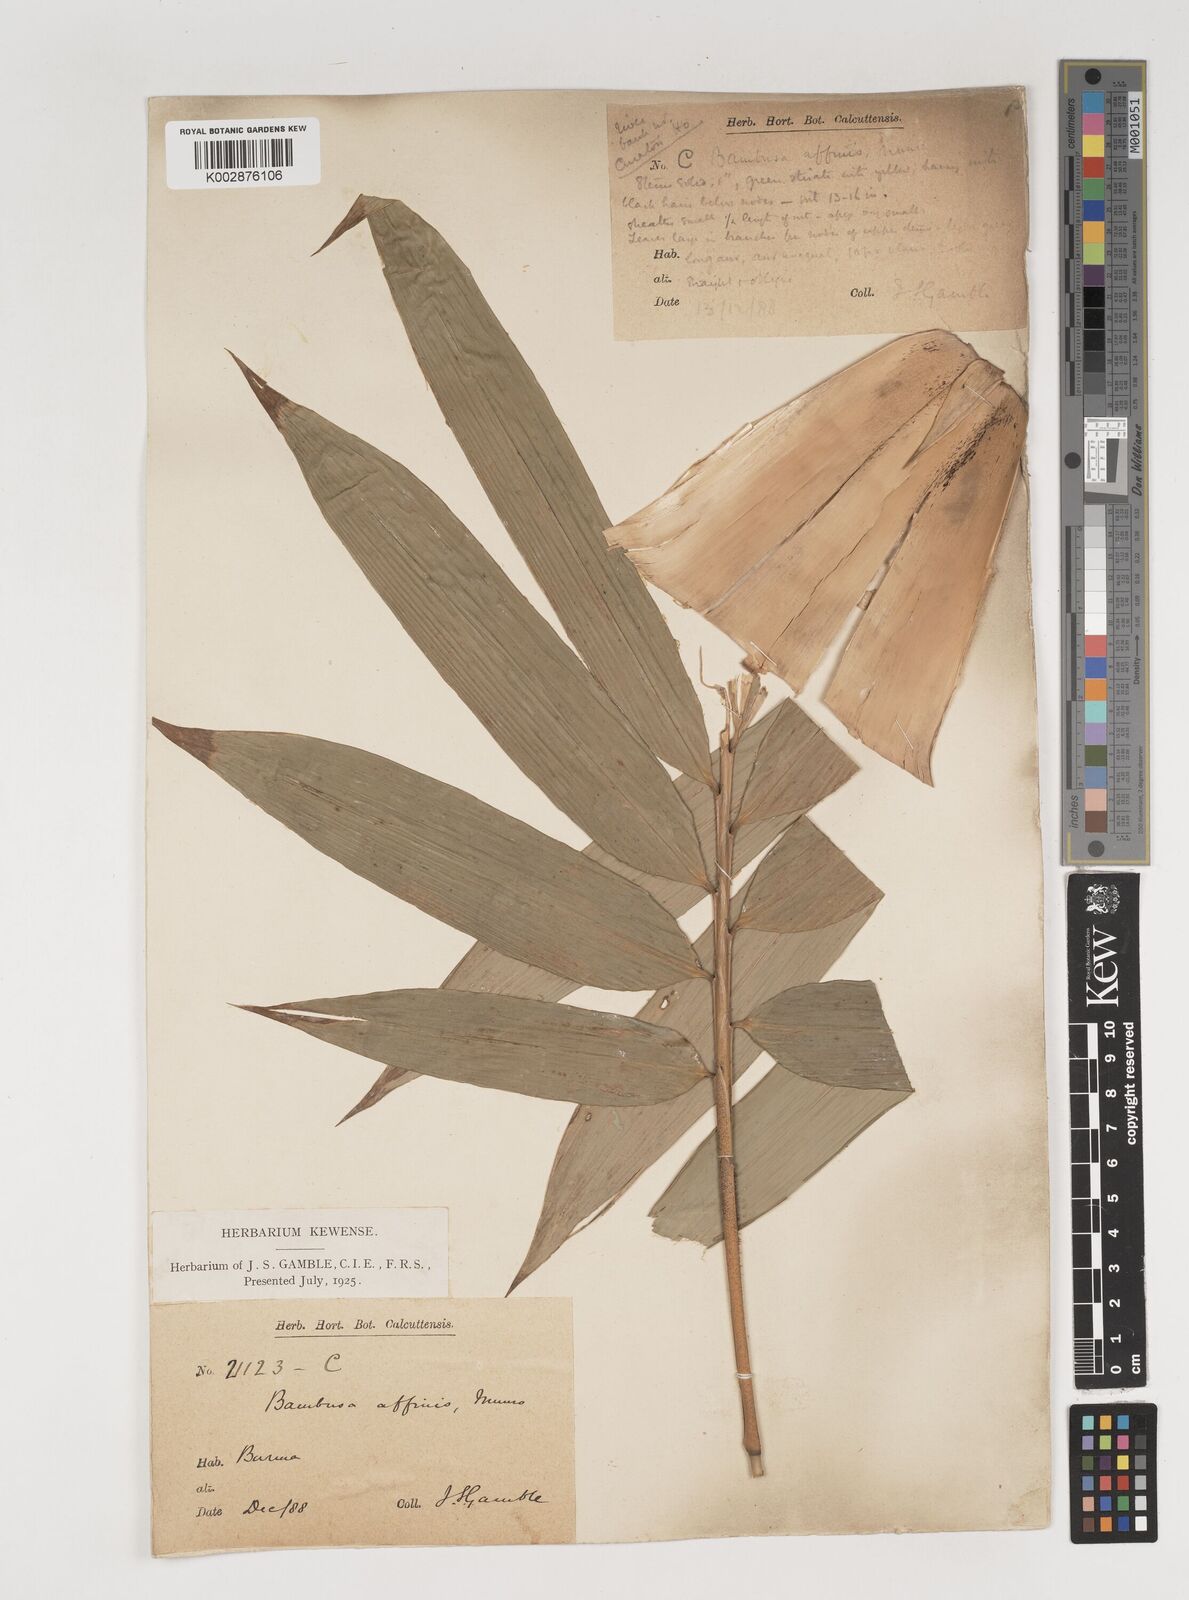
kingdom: Plantae
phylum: Tracheophyta
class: Liliopsida
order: Poales
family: Poaceae
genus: Bambusa
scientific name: Bambusa affinis
